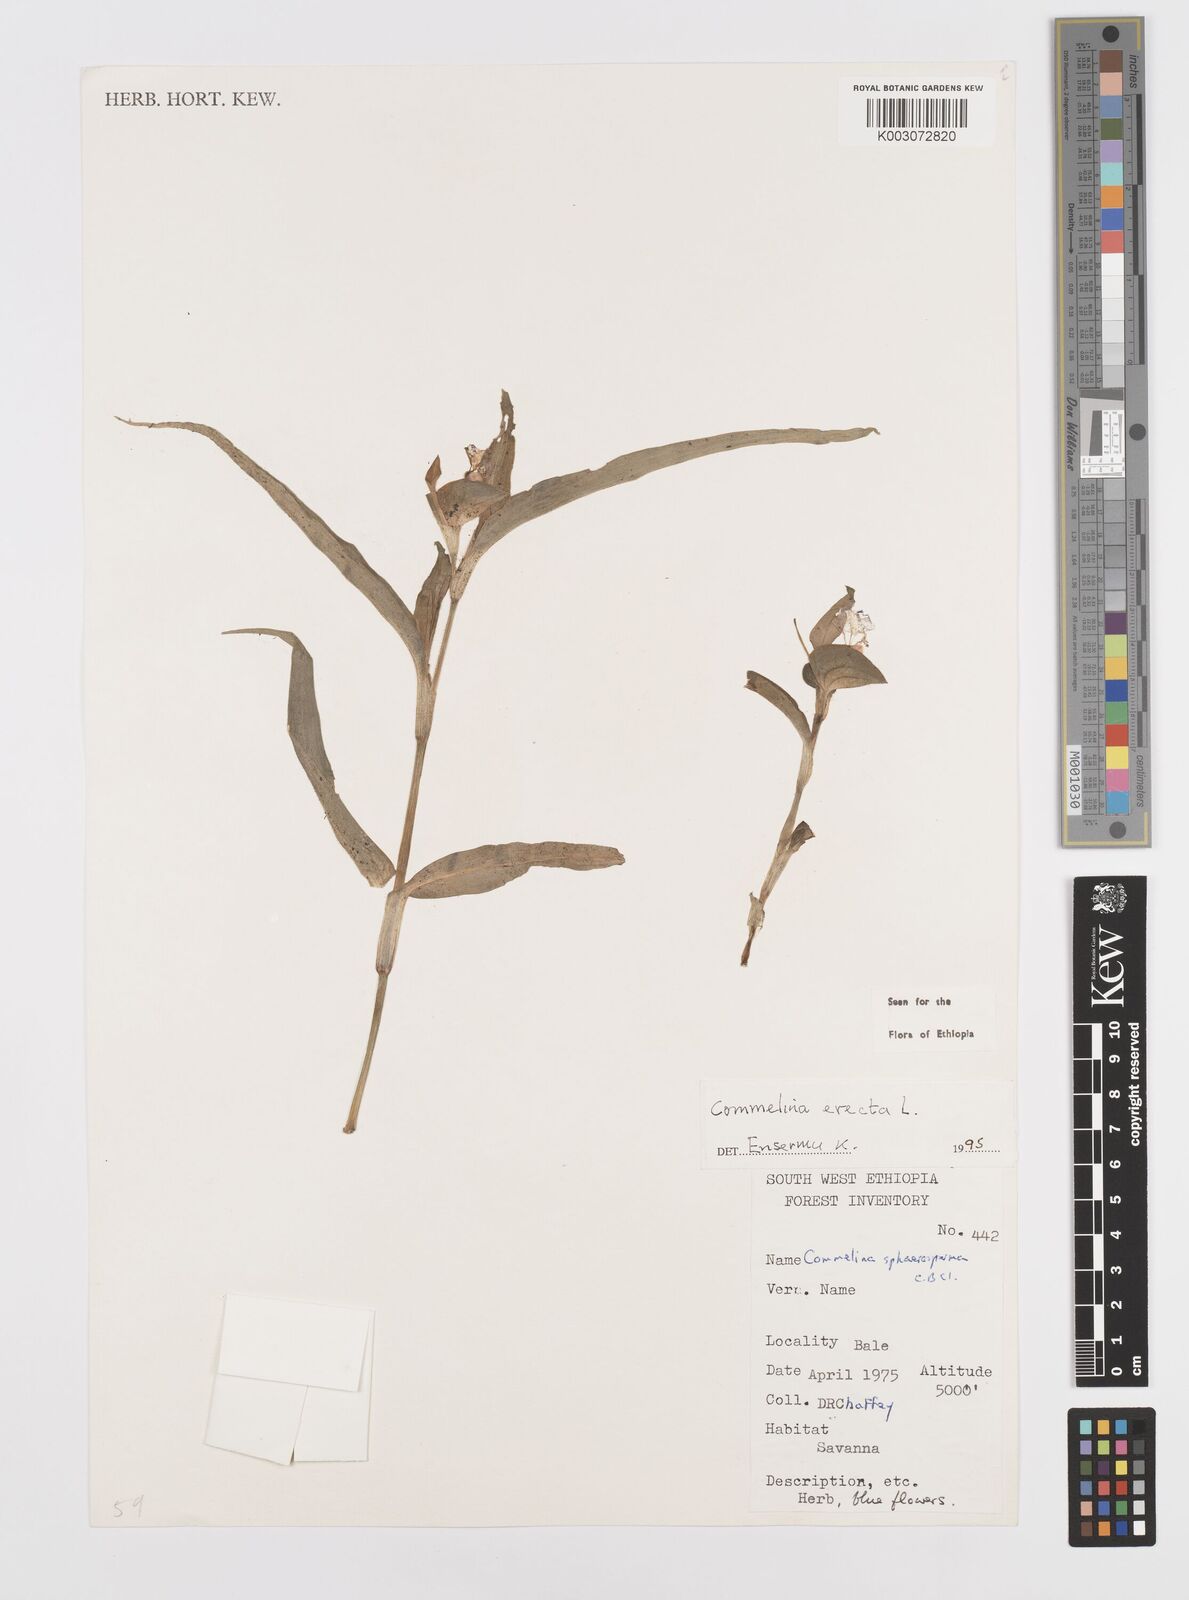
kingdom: Plantae
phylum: Tracheophyta
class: Liliopsida
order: Commelinales
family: Commelinaceae
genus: Commelina
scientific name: Commelina erecta
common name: Blousel blommetjie
